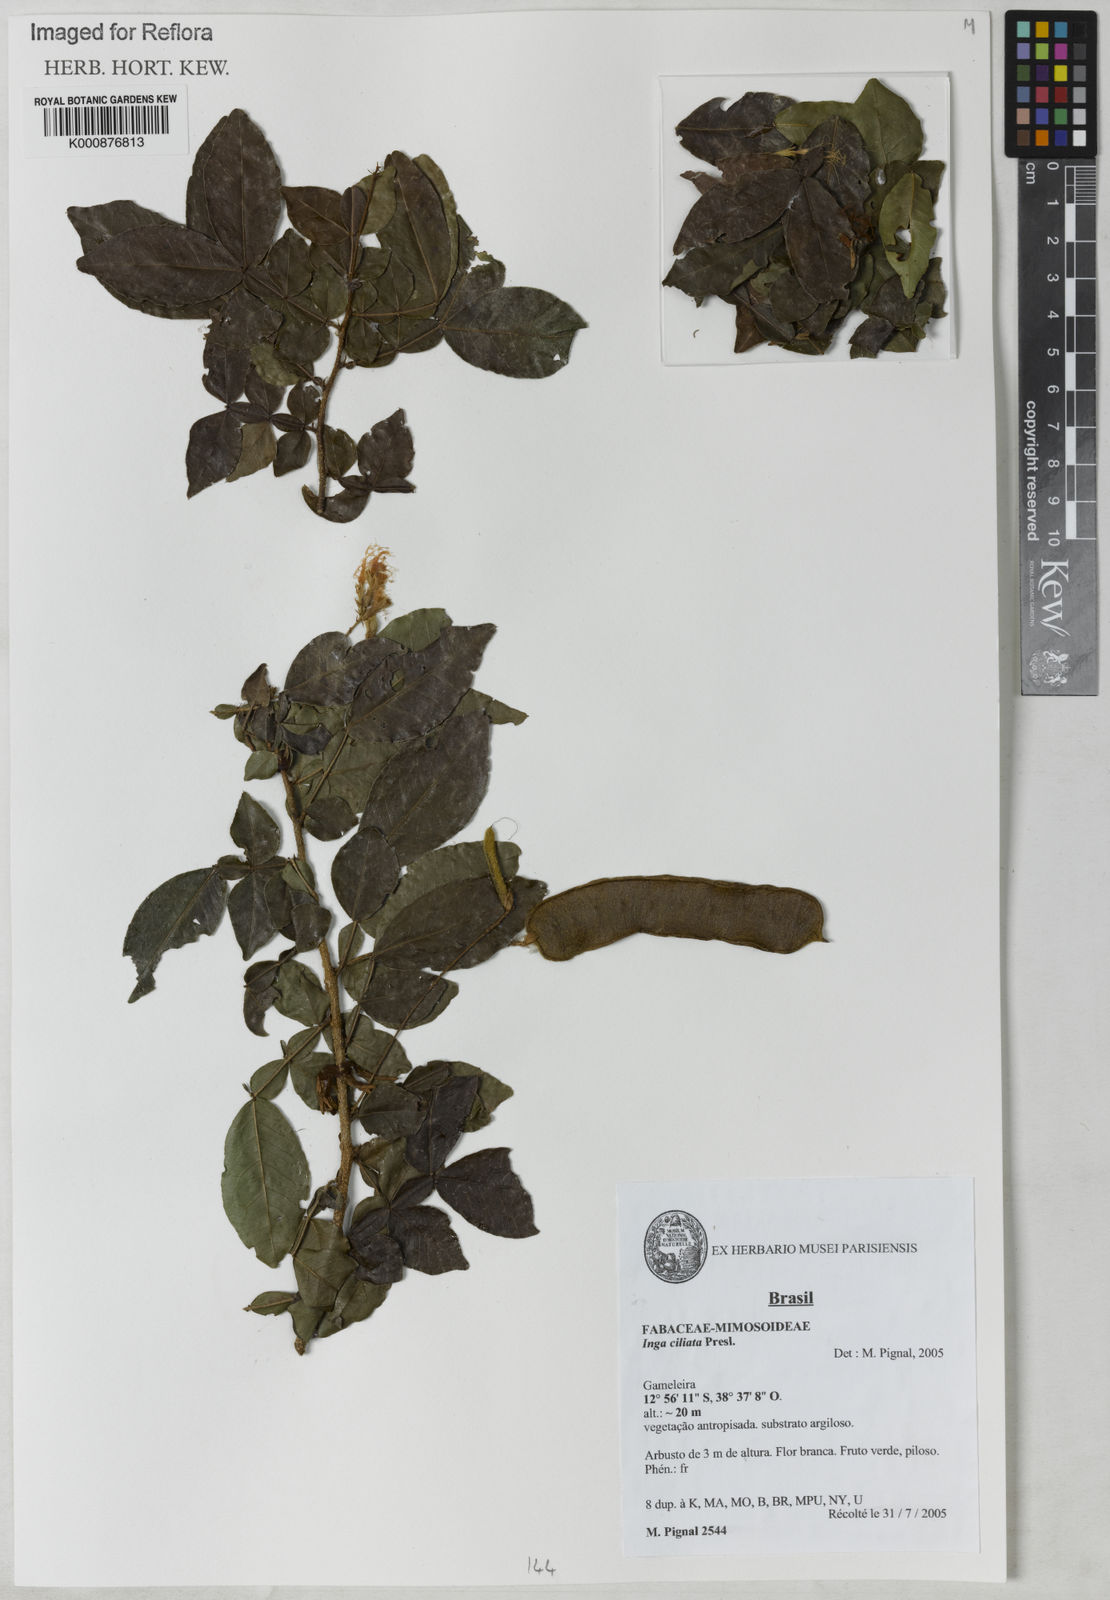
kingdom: Plantae
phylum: Tracheophyta
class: Magnoliopsida
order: Fabales
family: Fabaceae
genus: Inga
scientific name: Inga ciliata
